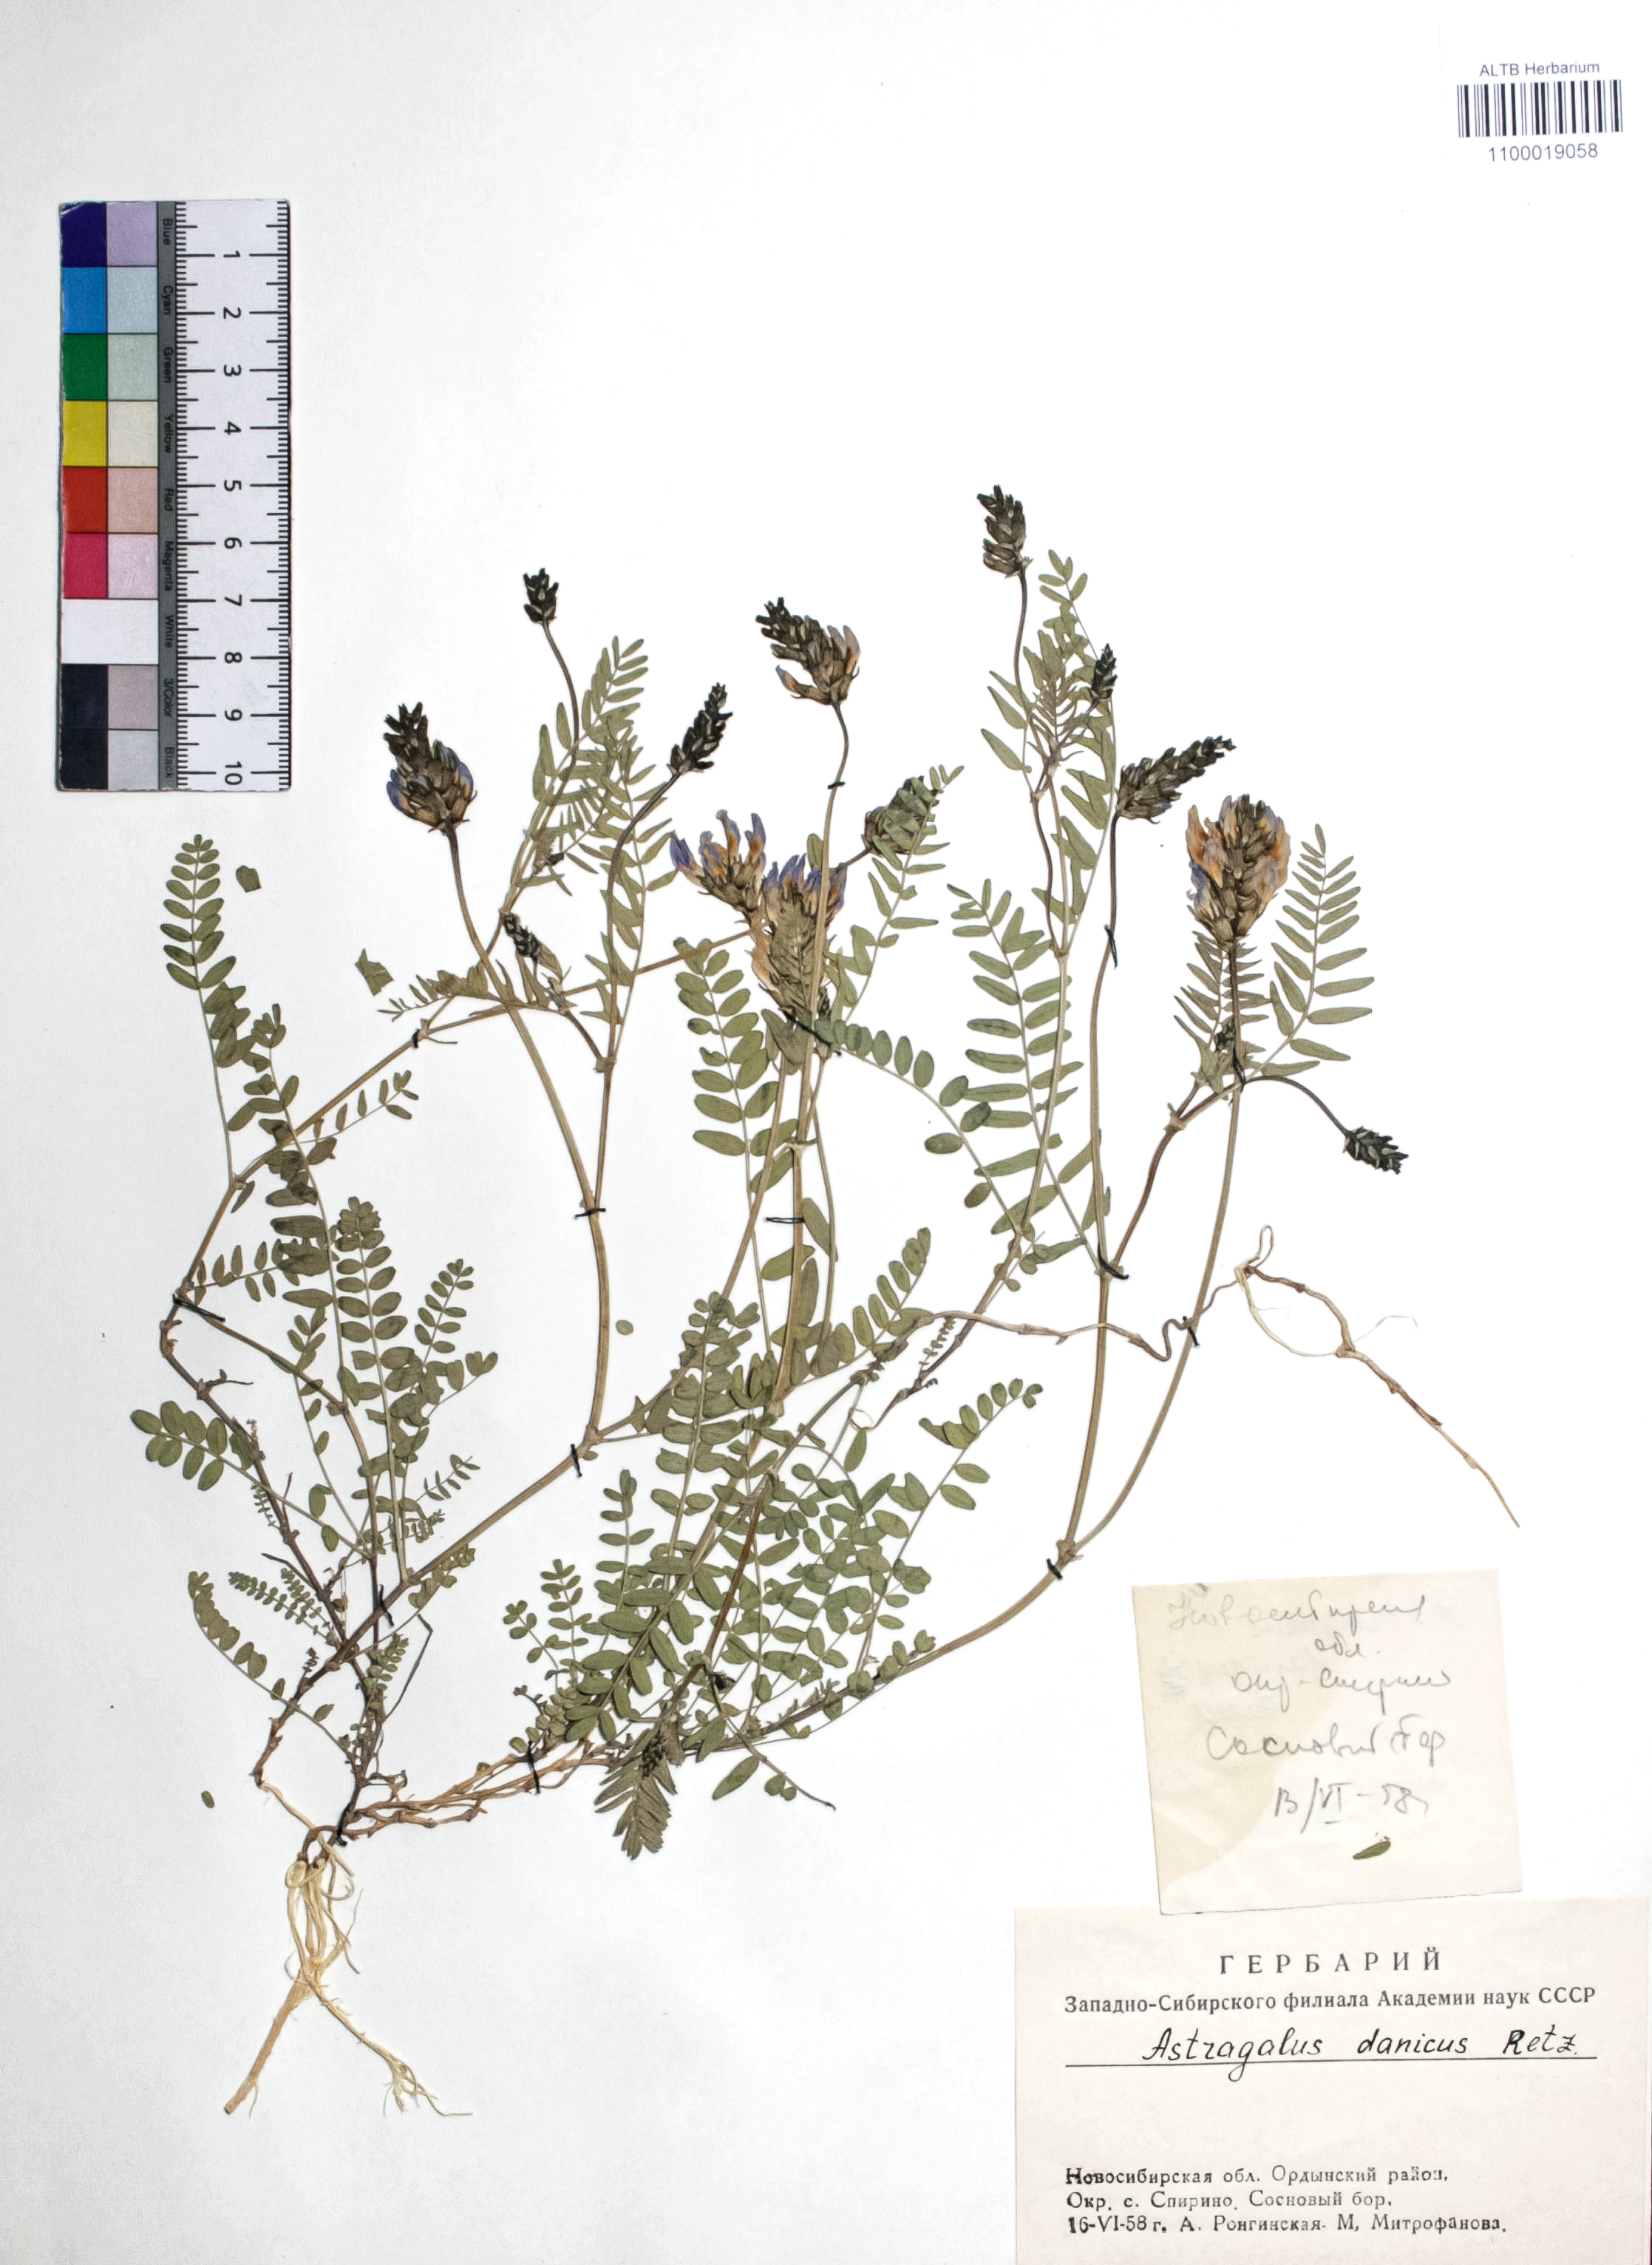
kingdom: Plantae
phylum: Tracheophyta
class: Magnoliopsida
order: Fabales
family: Fabaceae
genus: Astragalus
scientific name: Astragalus danicus
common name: Purple milk-vetch
